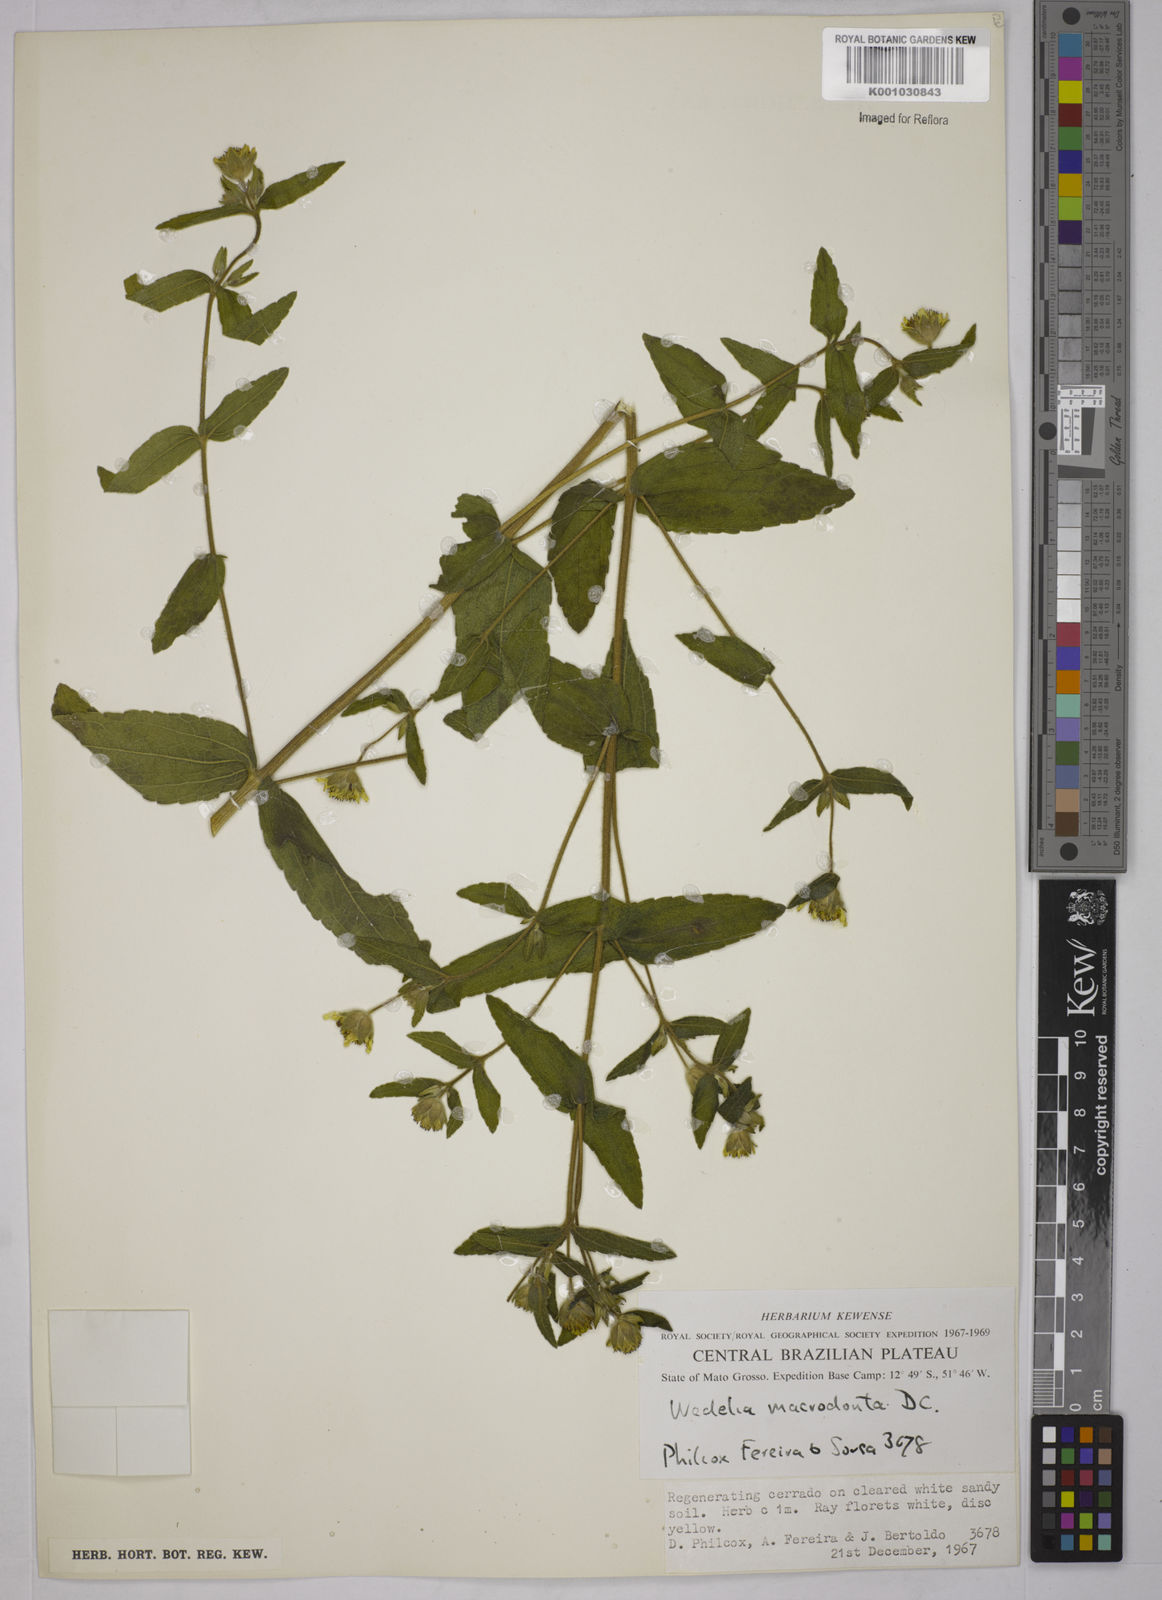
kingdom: Plantae
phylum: Tracheophyta
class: Magnoliopsida
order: Asterales
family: Asteraceae
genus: Wedelia
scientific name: Wedelia macrodonta
